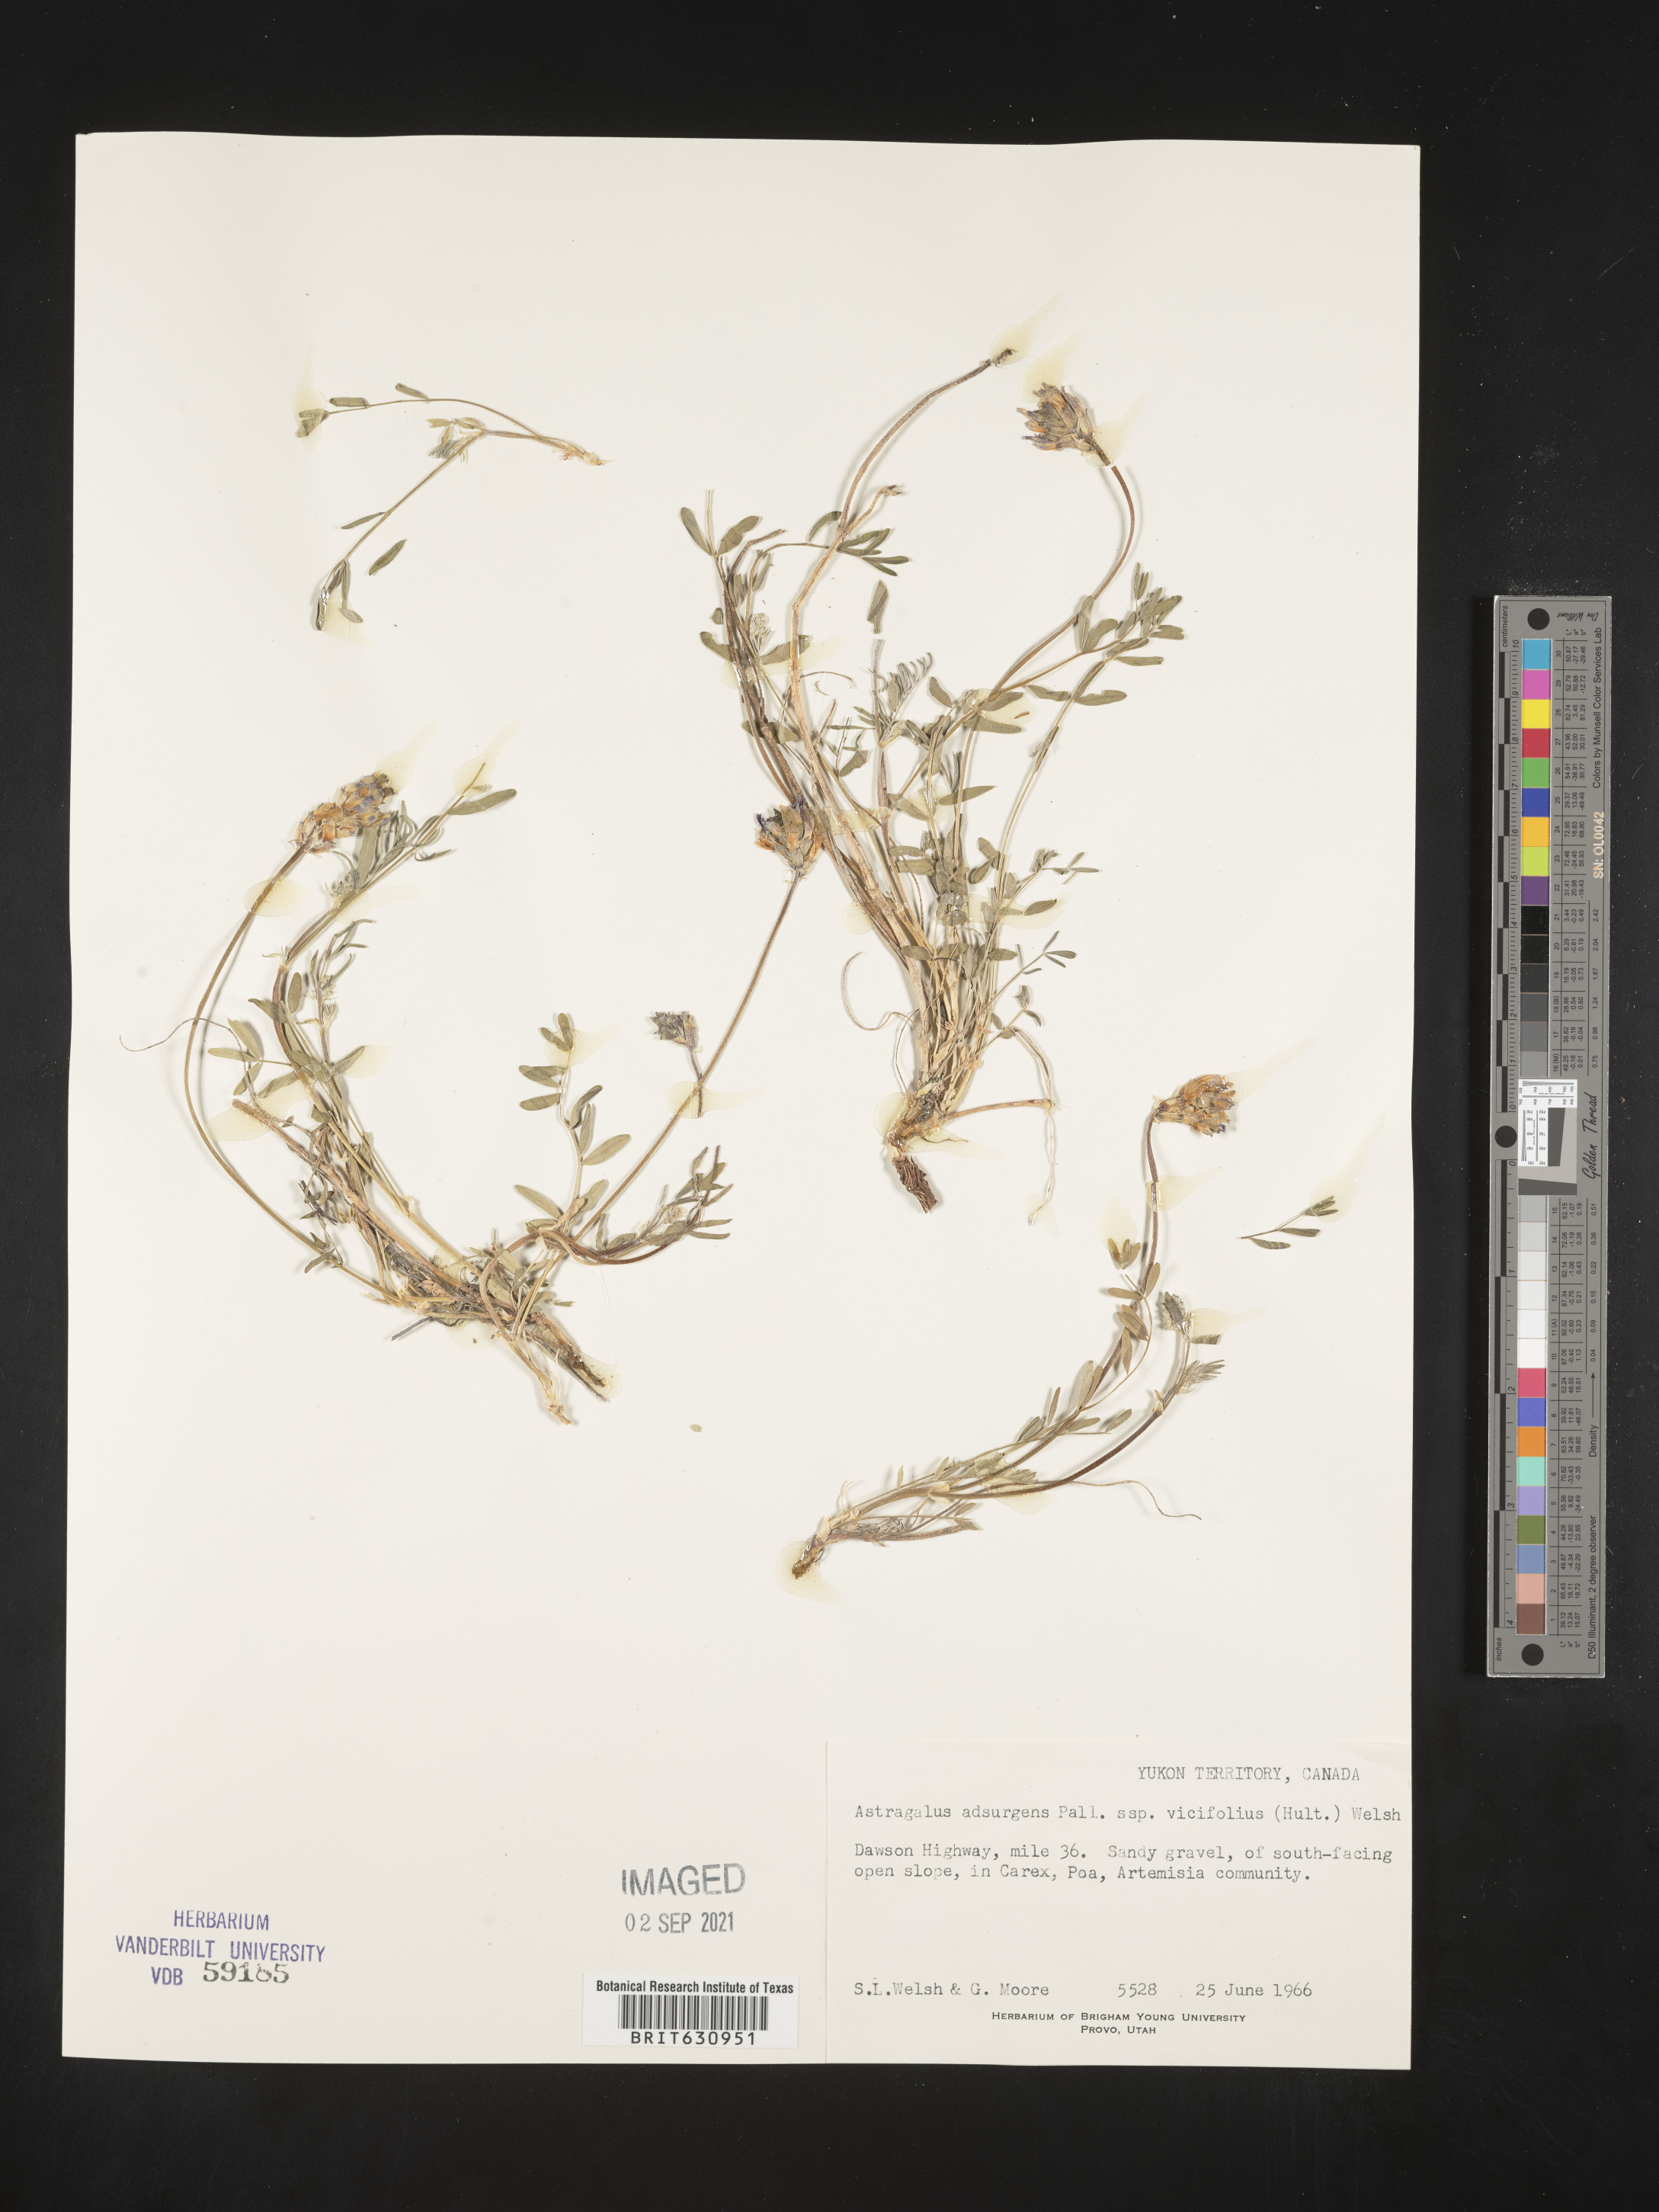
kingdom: Plantae
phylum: Tracheophyta
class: Magnoliopsida
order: Fabales
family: Fabaceae
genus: Astragalus
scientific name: Astragalus
